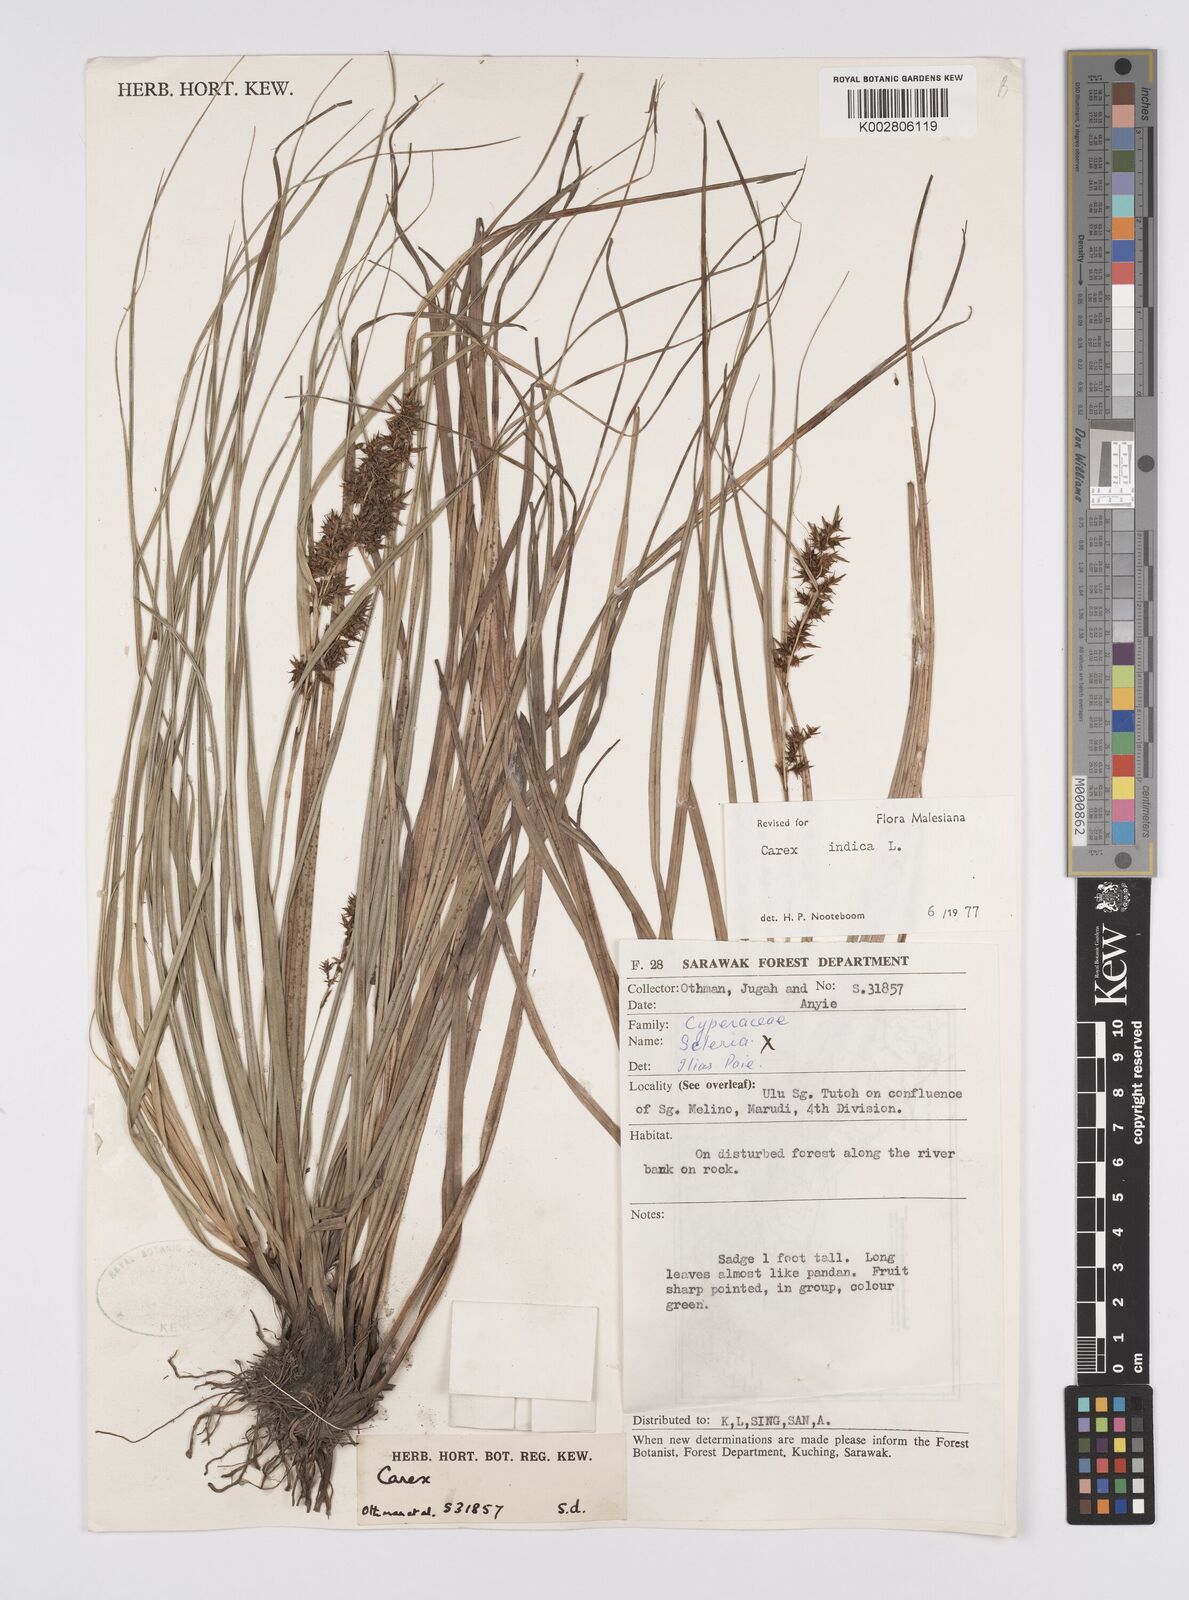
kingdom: Plantae
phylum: Tracheophyta
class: Liliopsida
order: Poales
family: Cyperaceae
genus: Carex
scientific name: Carex indica
